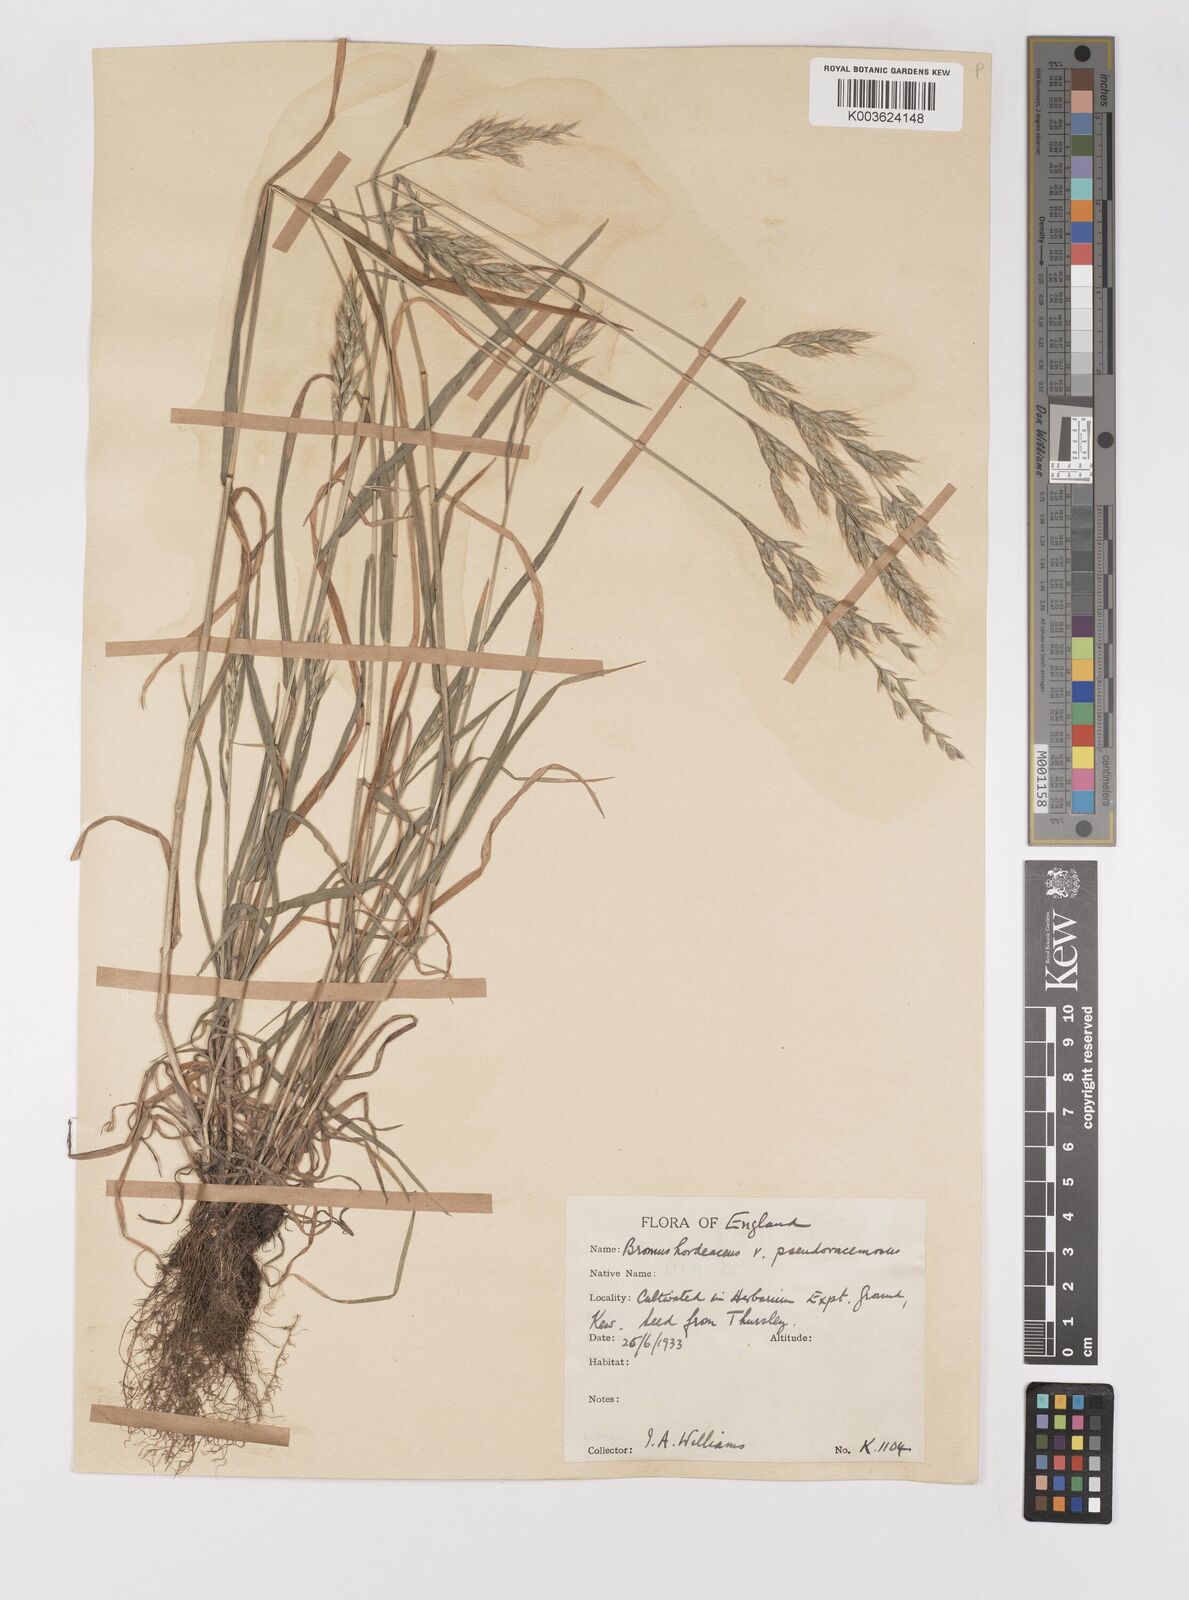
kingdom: Plantae
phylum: Tracheophyta
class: Liliopsida
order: Poales
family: Poaceae
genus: Bromus
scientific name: Bromus hordeaceus
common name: Soft brome
